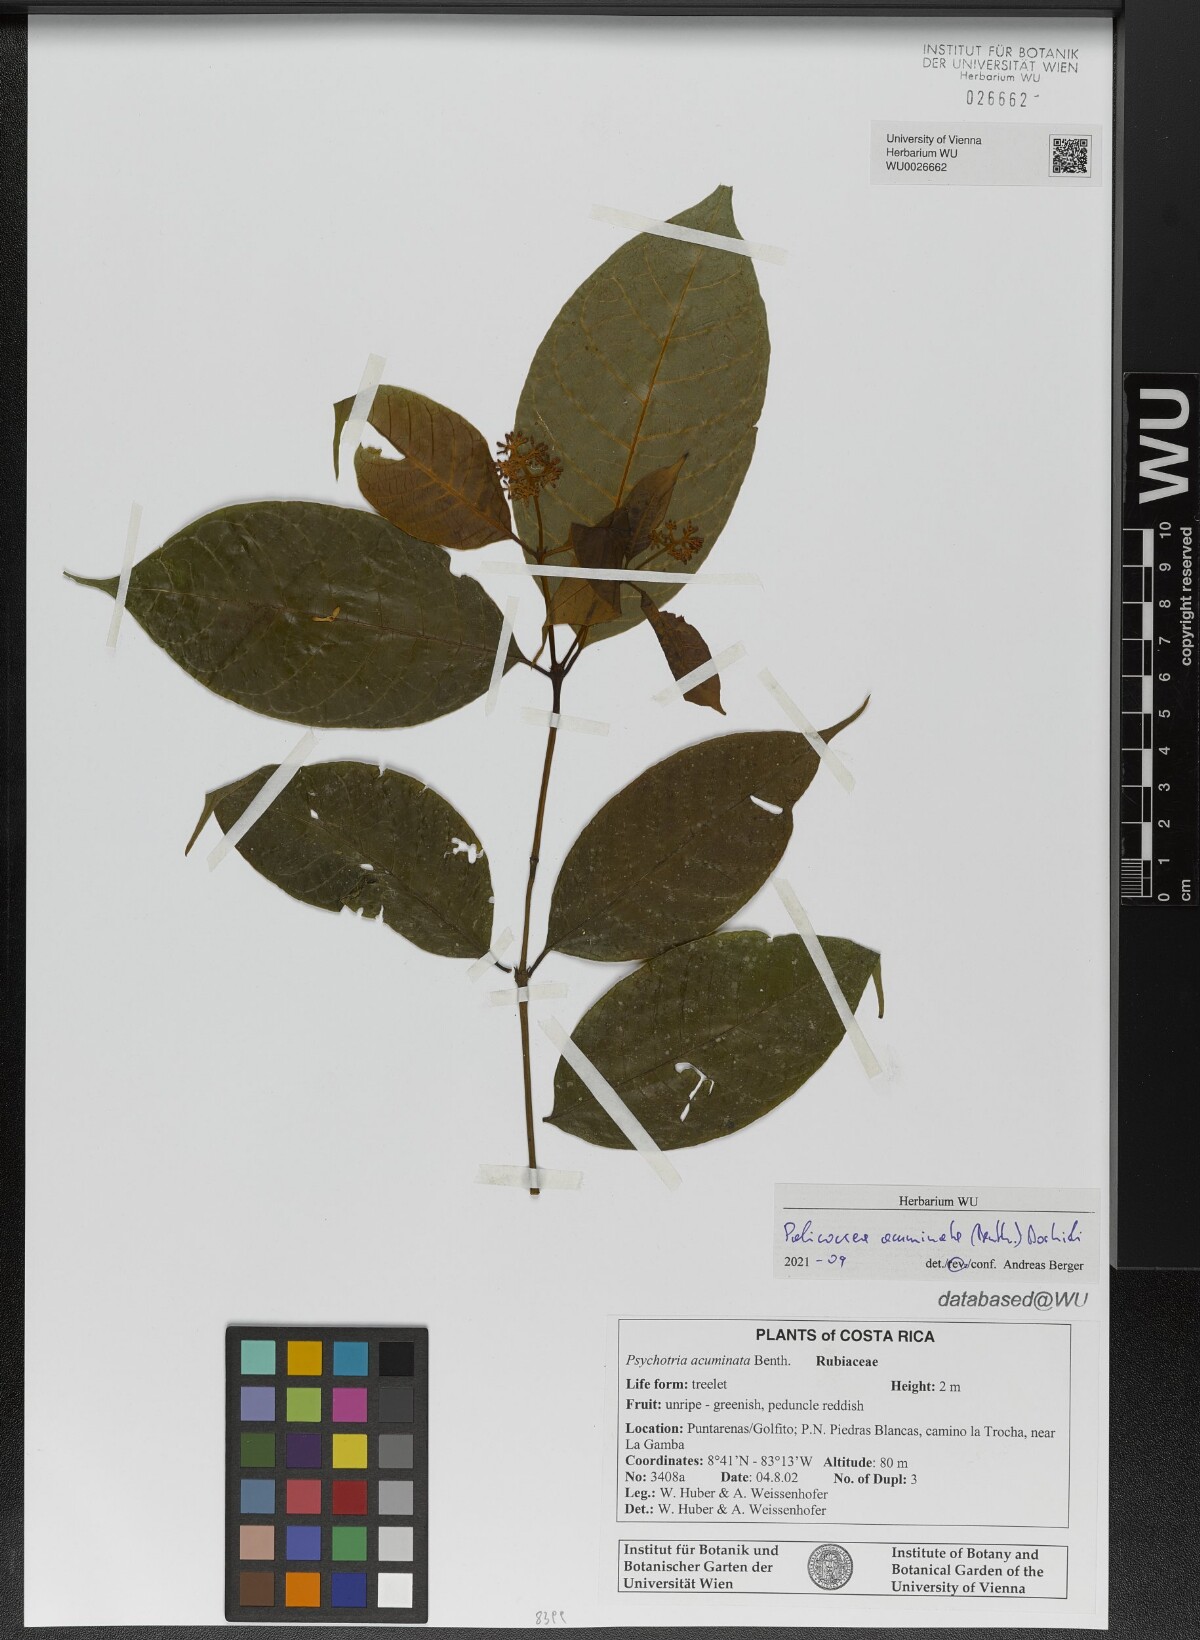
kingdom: Plantae
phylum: Tracheophyta
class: Magnoliopsida
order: Gentianales
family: Rubiaceae
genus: Palicourea
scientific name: Palicourea acuminata
